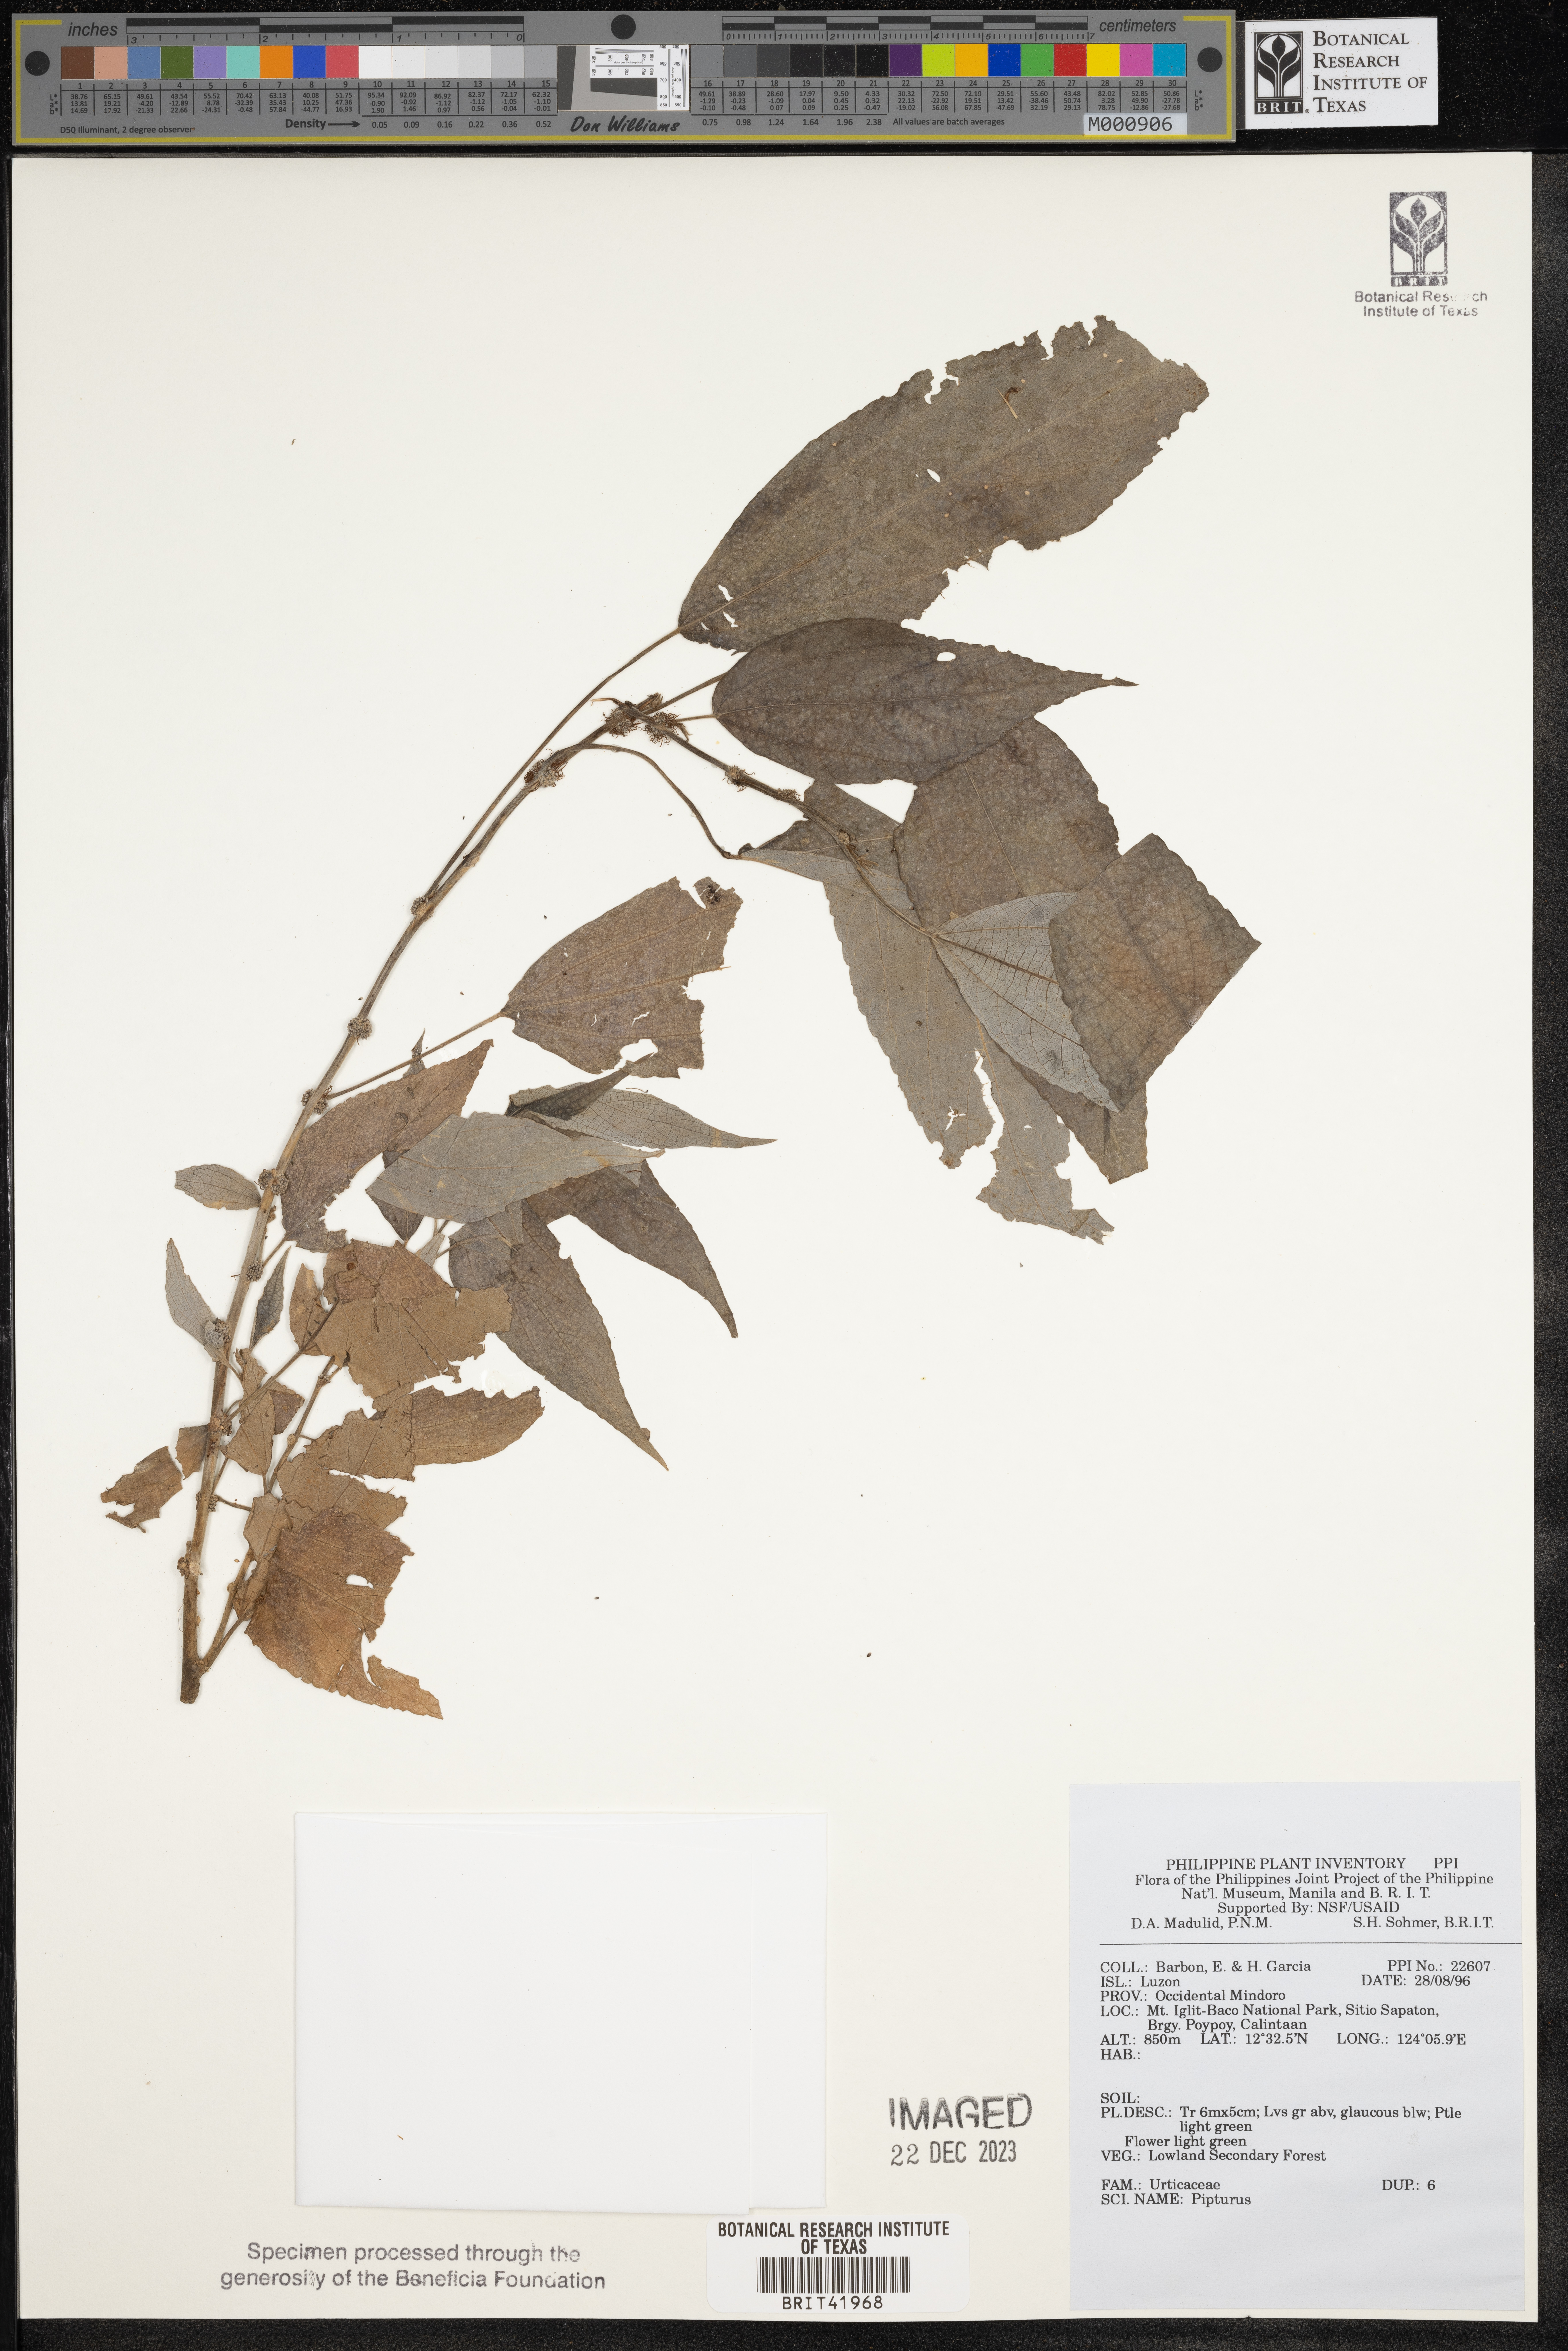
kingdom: Plantae
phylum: Tracheophyta
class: Magnoliopsida
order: Rosales
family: Urticaceae
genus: Pipturus
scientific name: Pipturus
